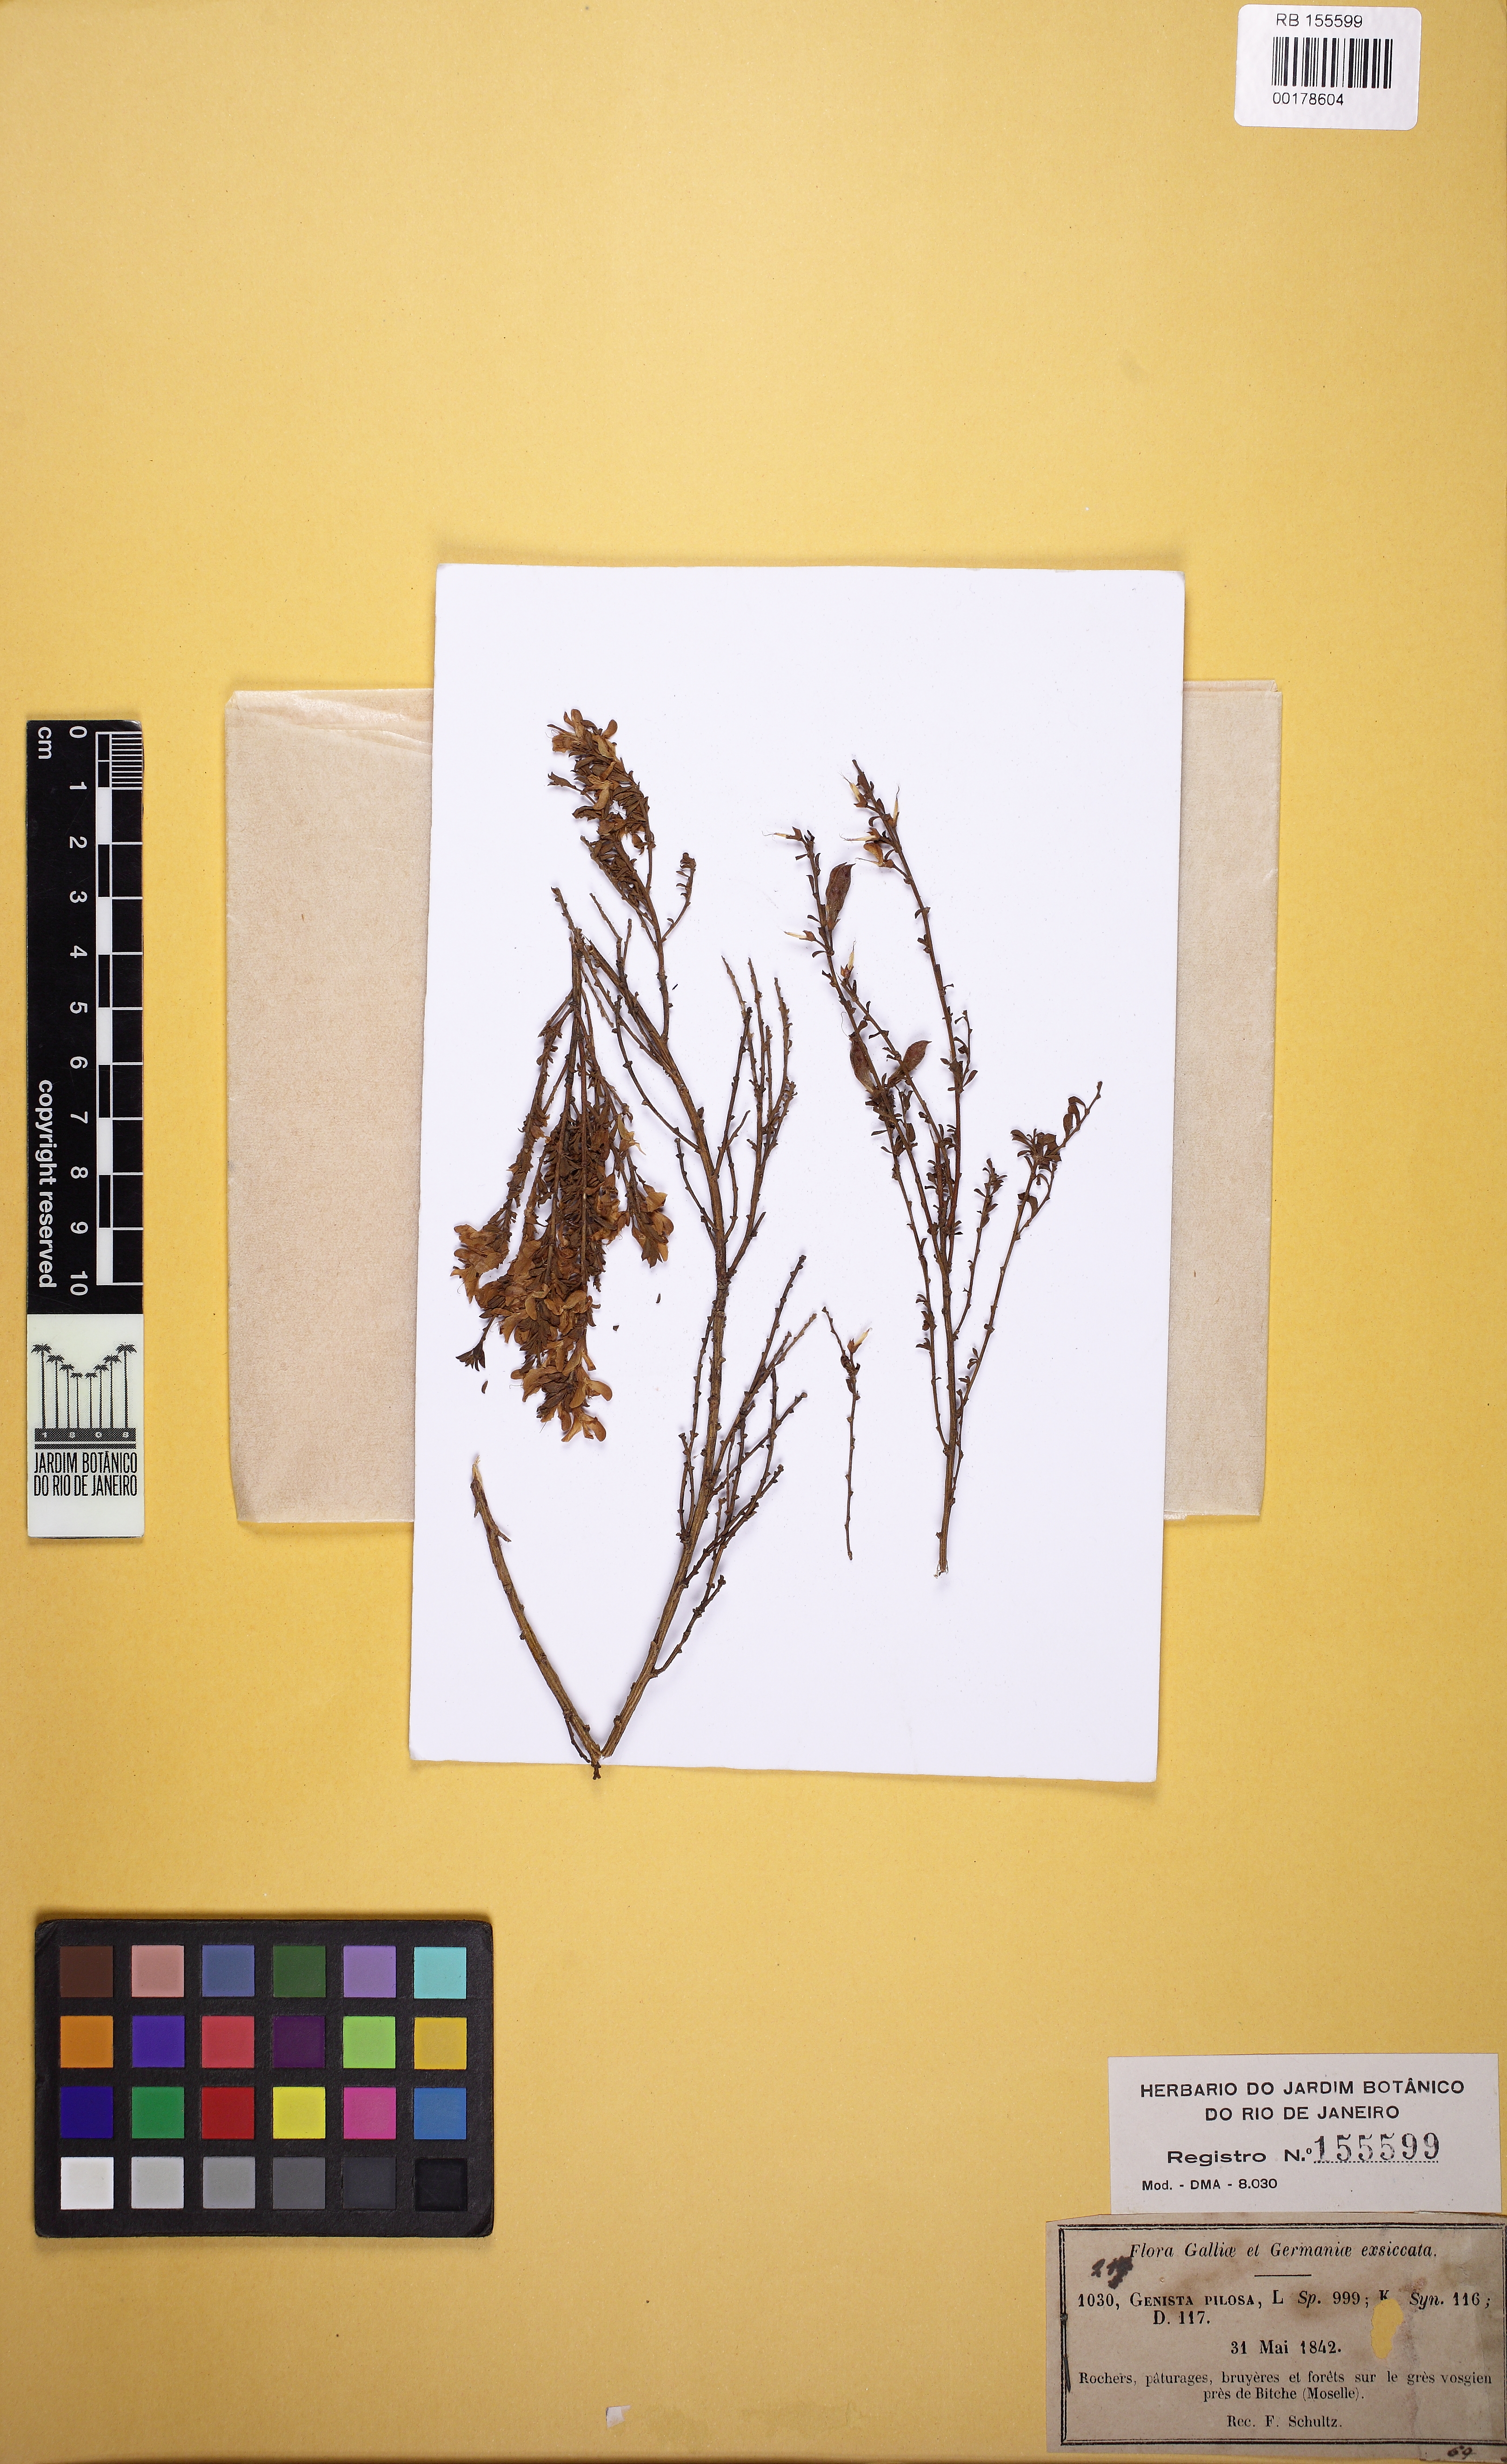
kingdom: Plantae
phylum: Tracheophyta
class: Magnoliopsida
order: Fabales
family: Fabaceae
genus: Genista
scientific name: Genista pilosa
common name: Hairy greenweed
